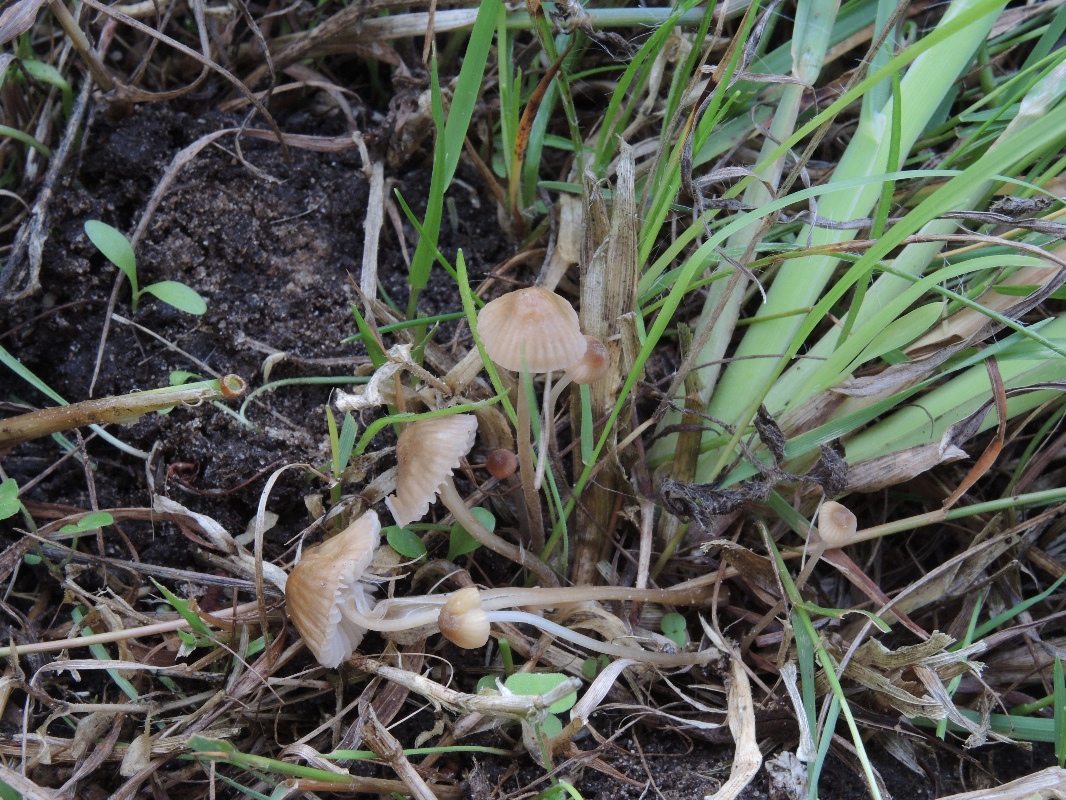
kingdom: Fungi
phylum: Basidiomycota
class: Agaricomycetes
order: Agaricales
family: Mycenaceae
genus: Mycena
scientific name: Mycena olivaceomarginata
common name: brunægget huesvamp
